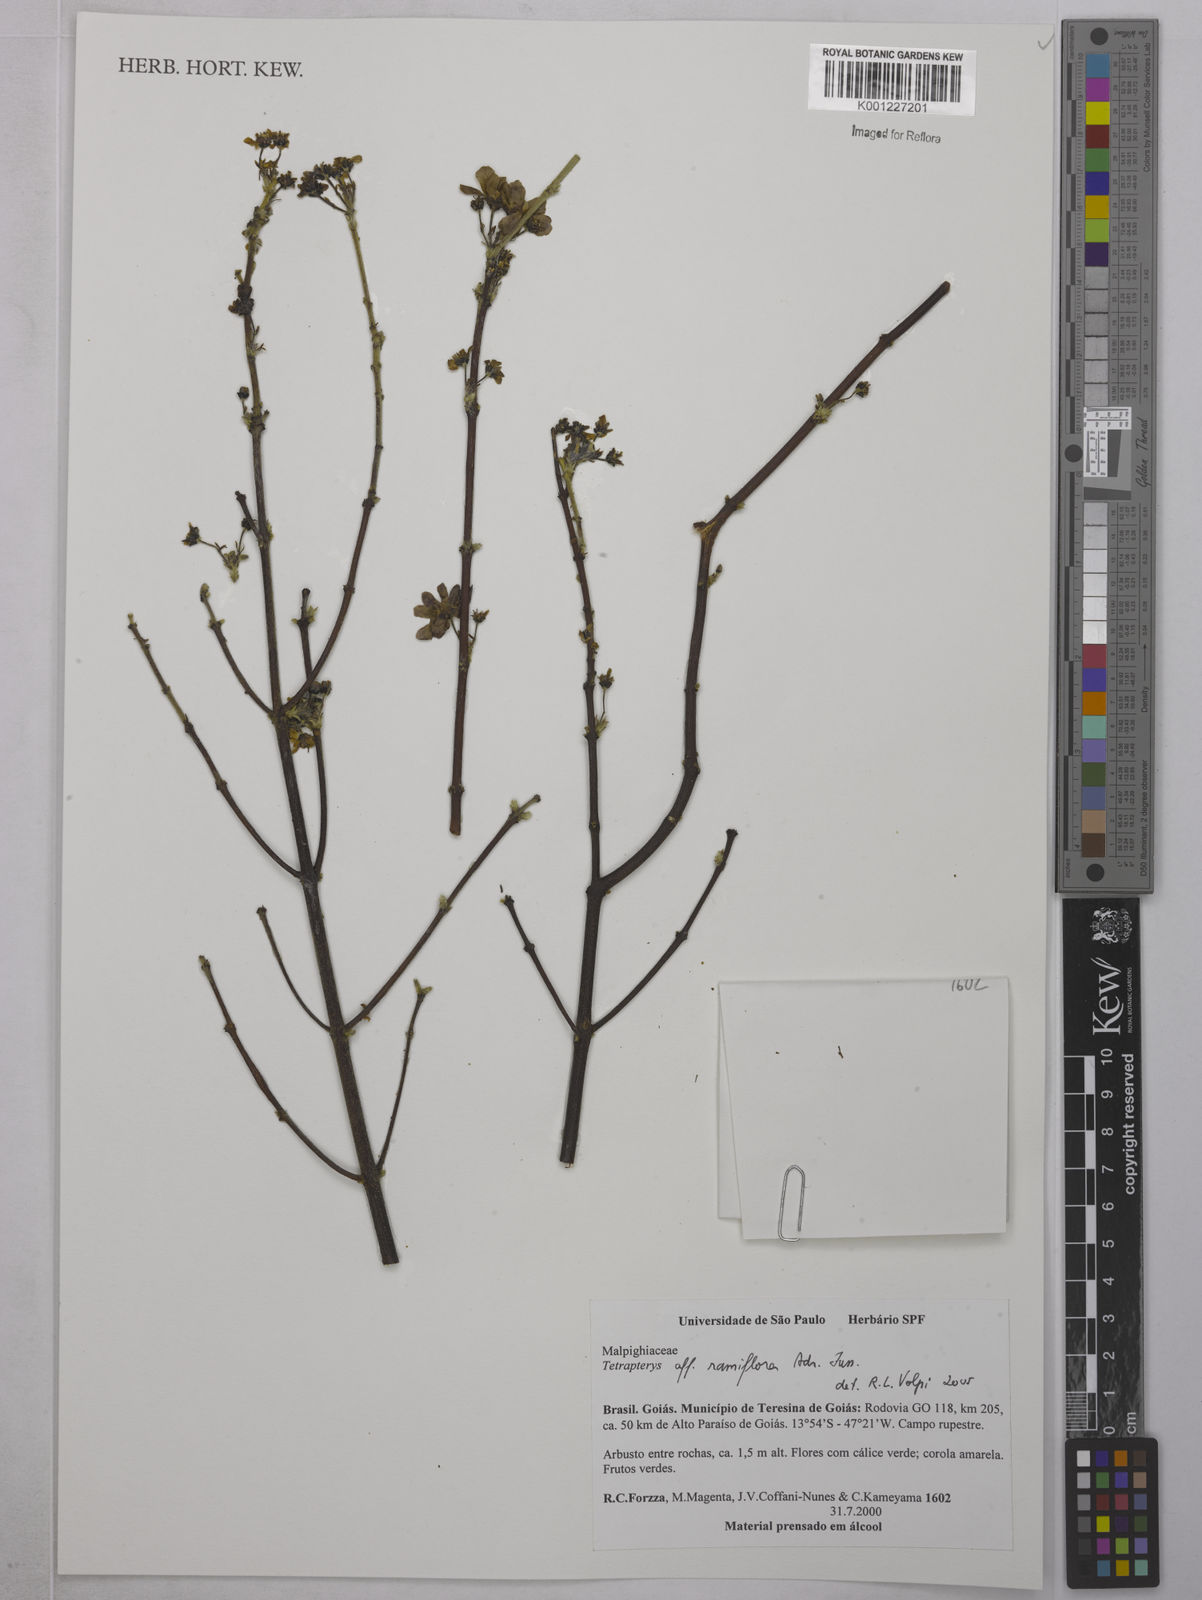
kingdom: Plantae
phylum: Tracheophyta
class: Magnoliopsida
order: Malpighiales
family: Malpighiaceae
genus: Glicophyllum
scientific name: Glicophyllum ramiflorum
